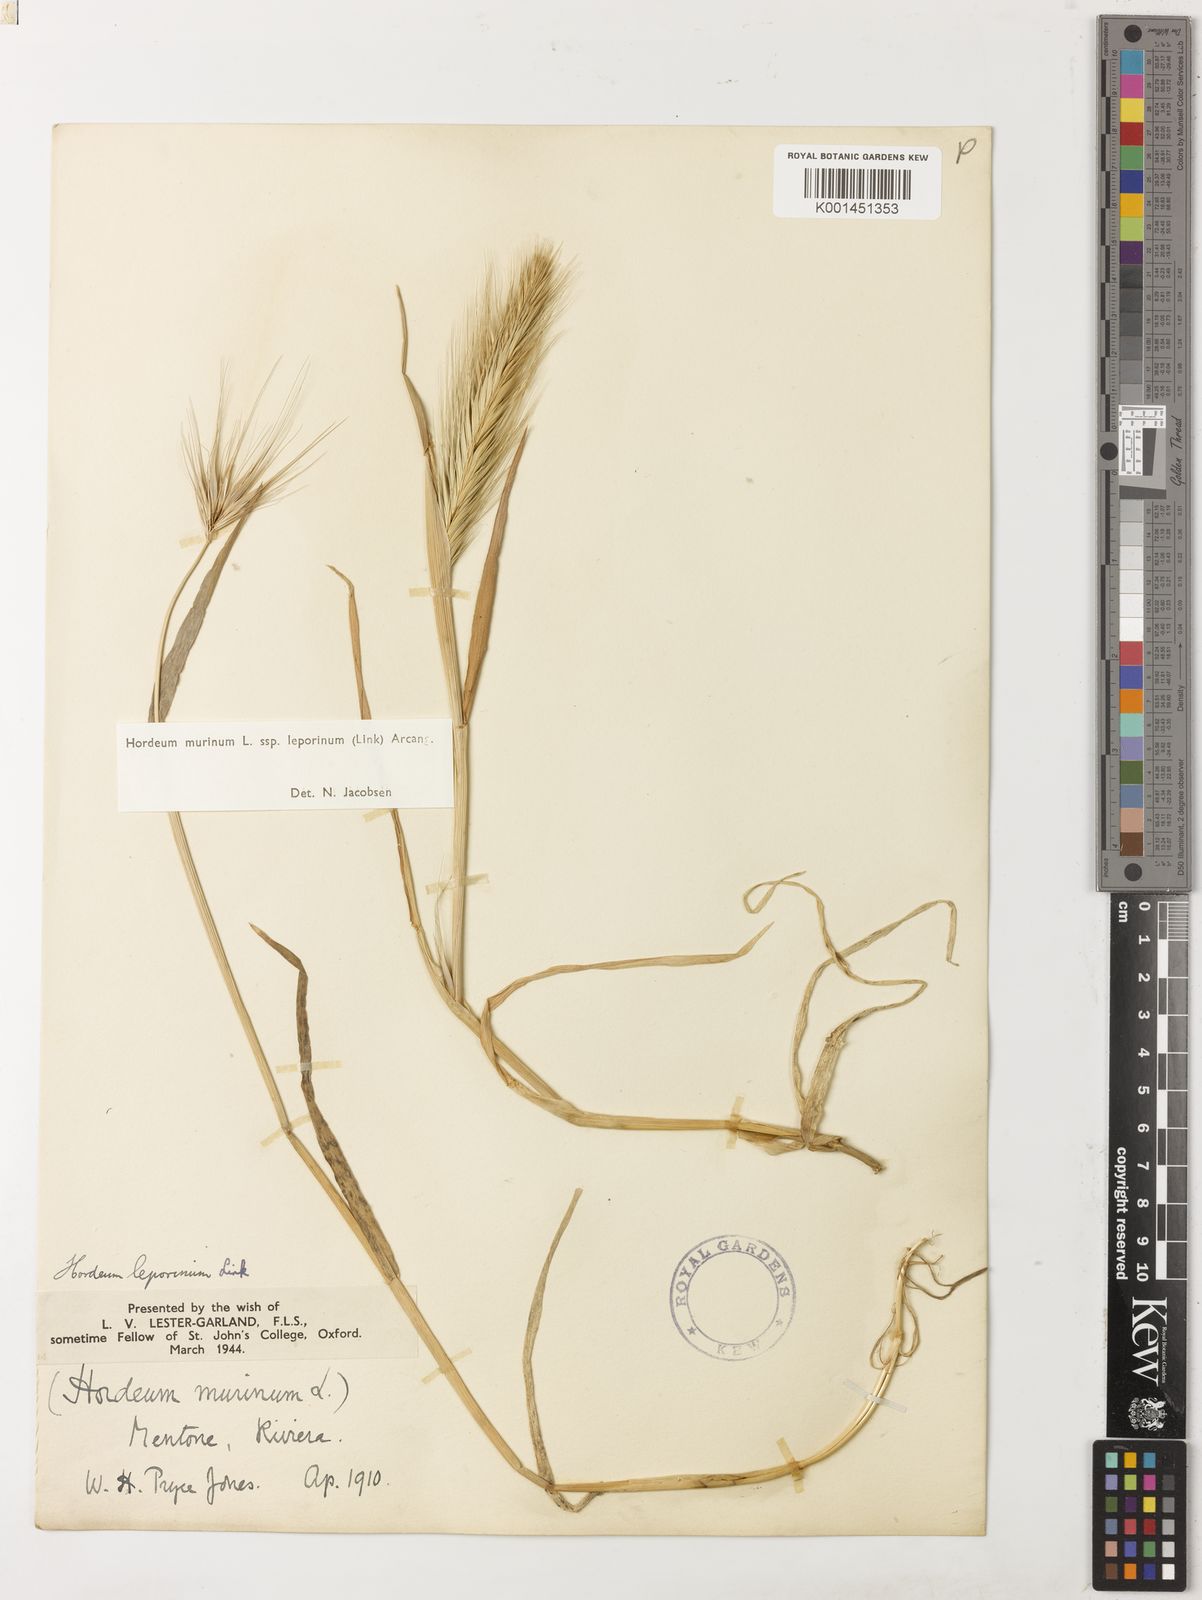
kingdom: Plantae
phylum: Tracheophyta
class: Liliopsida
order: Poales
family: Poaceae
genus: Hordeum
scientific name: Hordeum murinum
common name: Wall barley
